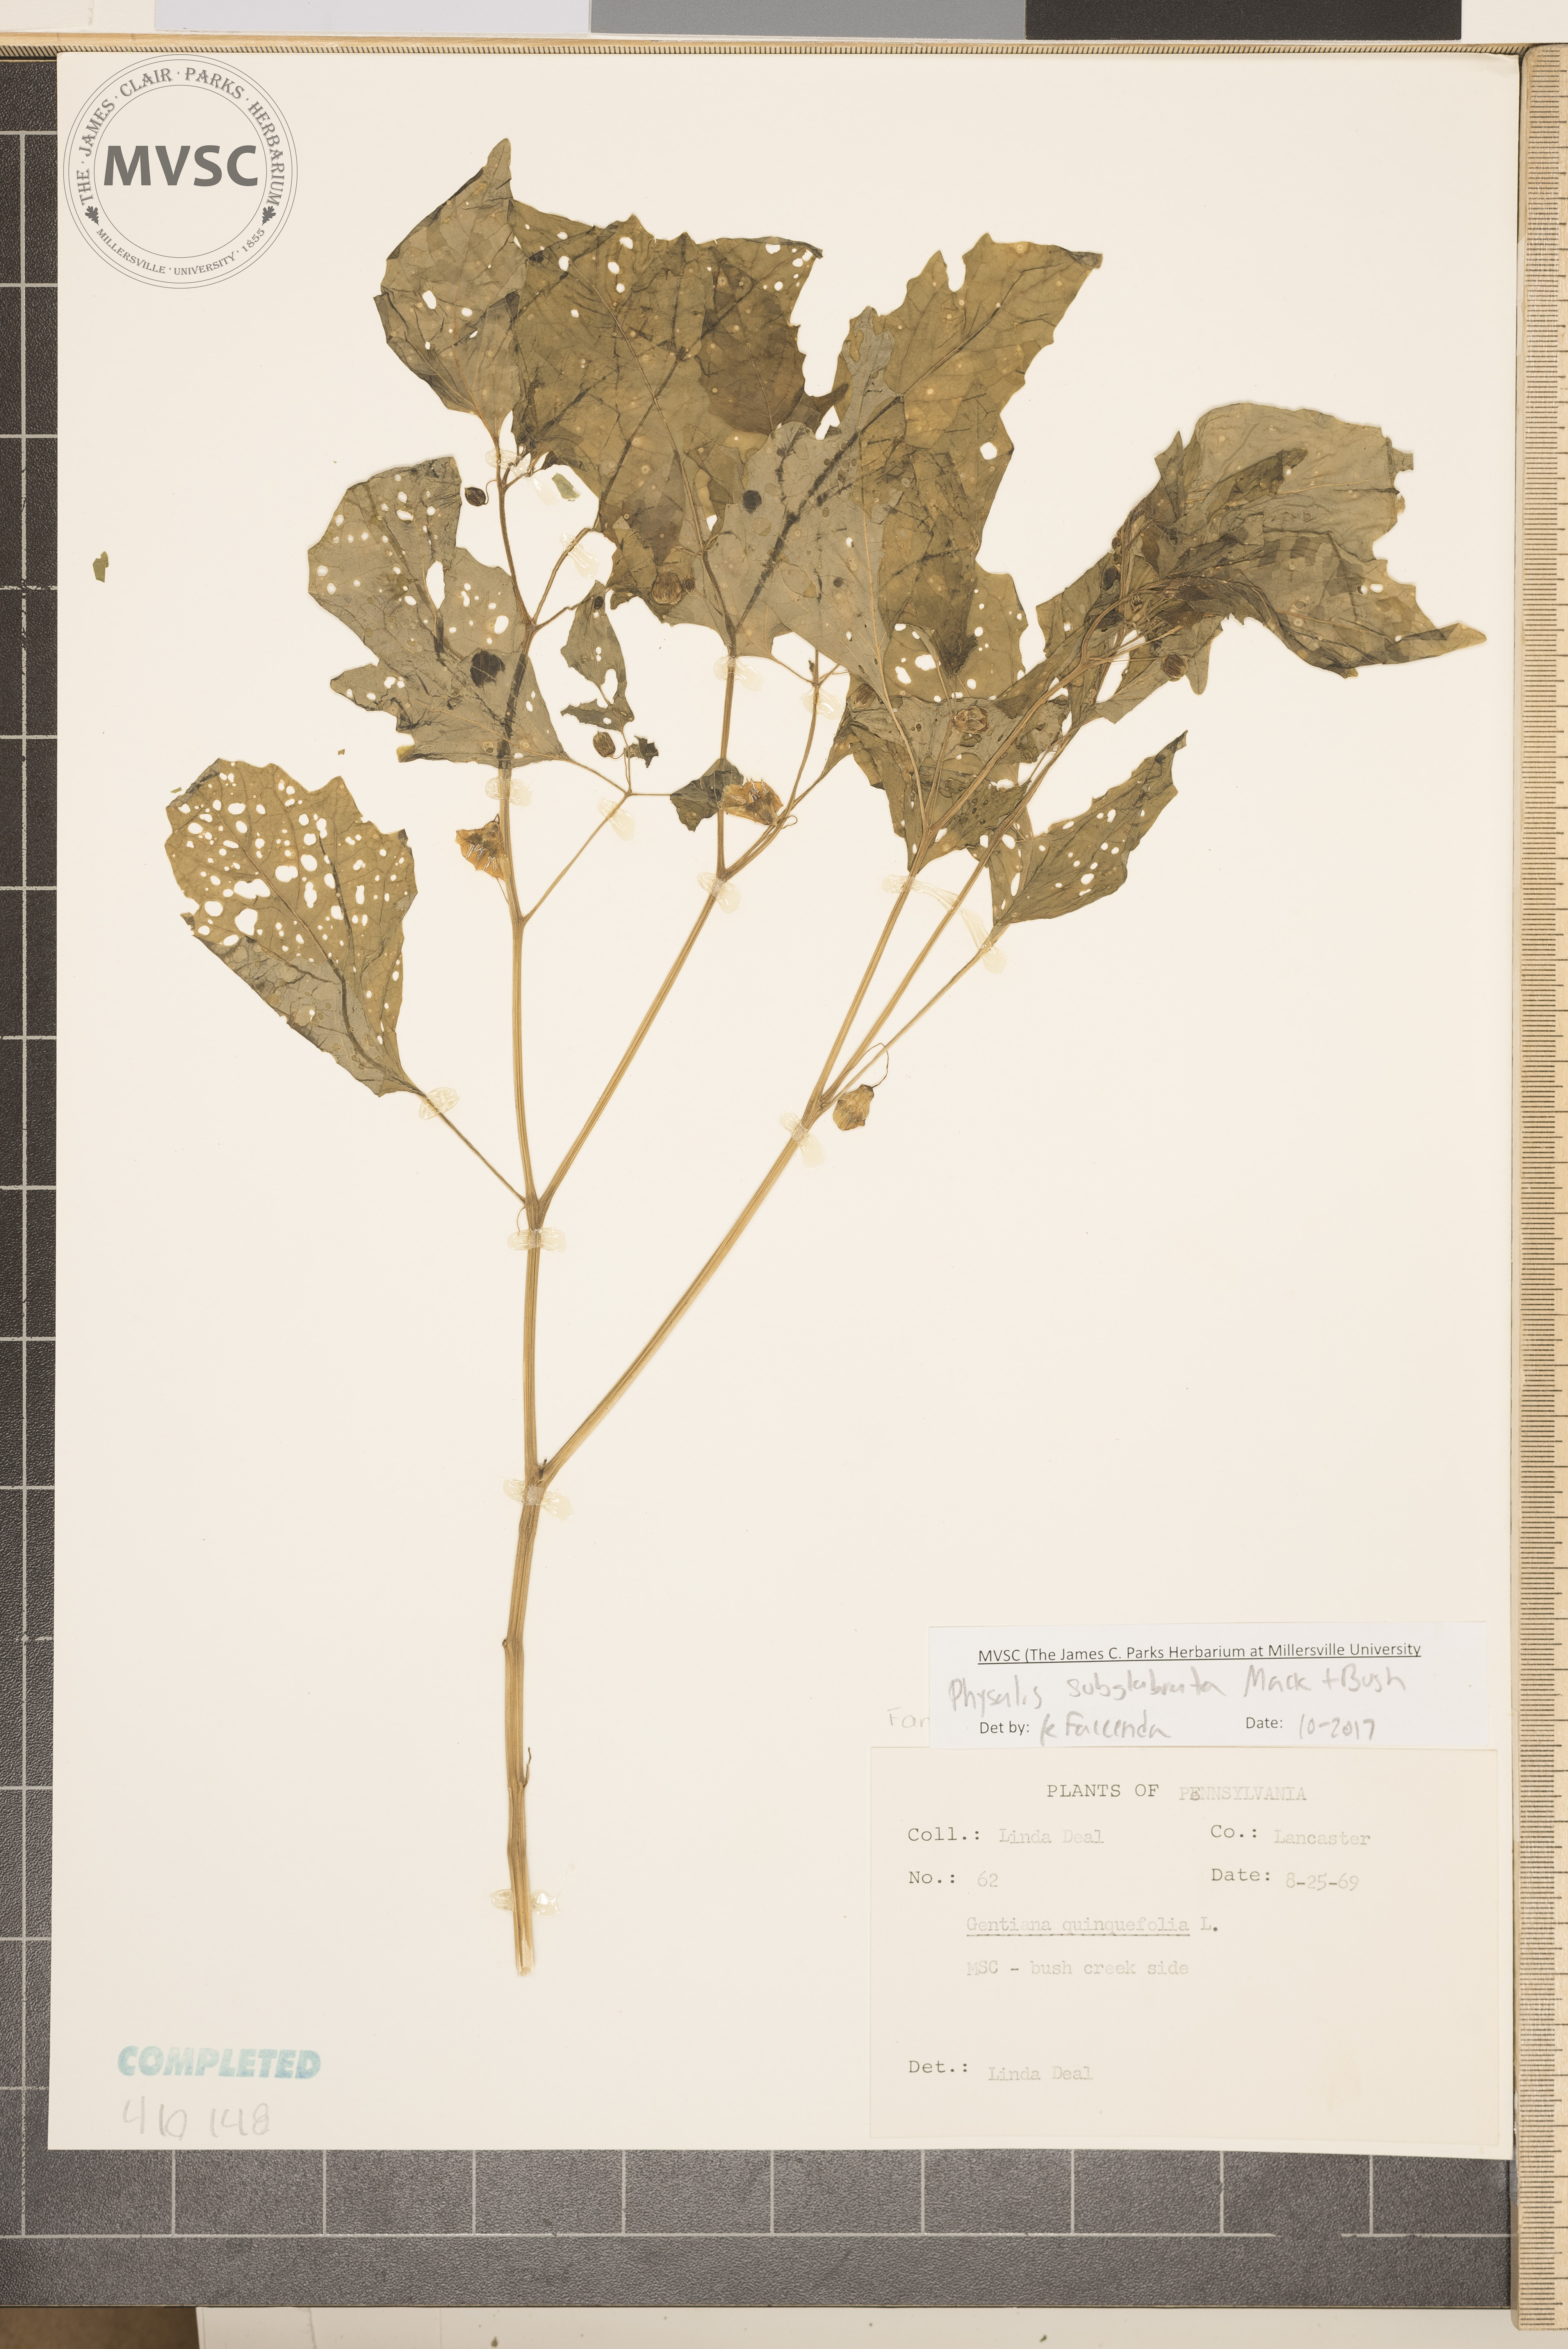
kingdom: Plantae
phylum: Tracheophyta
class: Magnoliopsida
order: Solanales
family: Solanaceae
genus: Physalis
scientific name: Physalis longifolia
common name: Common ground-cherry
